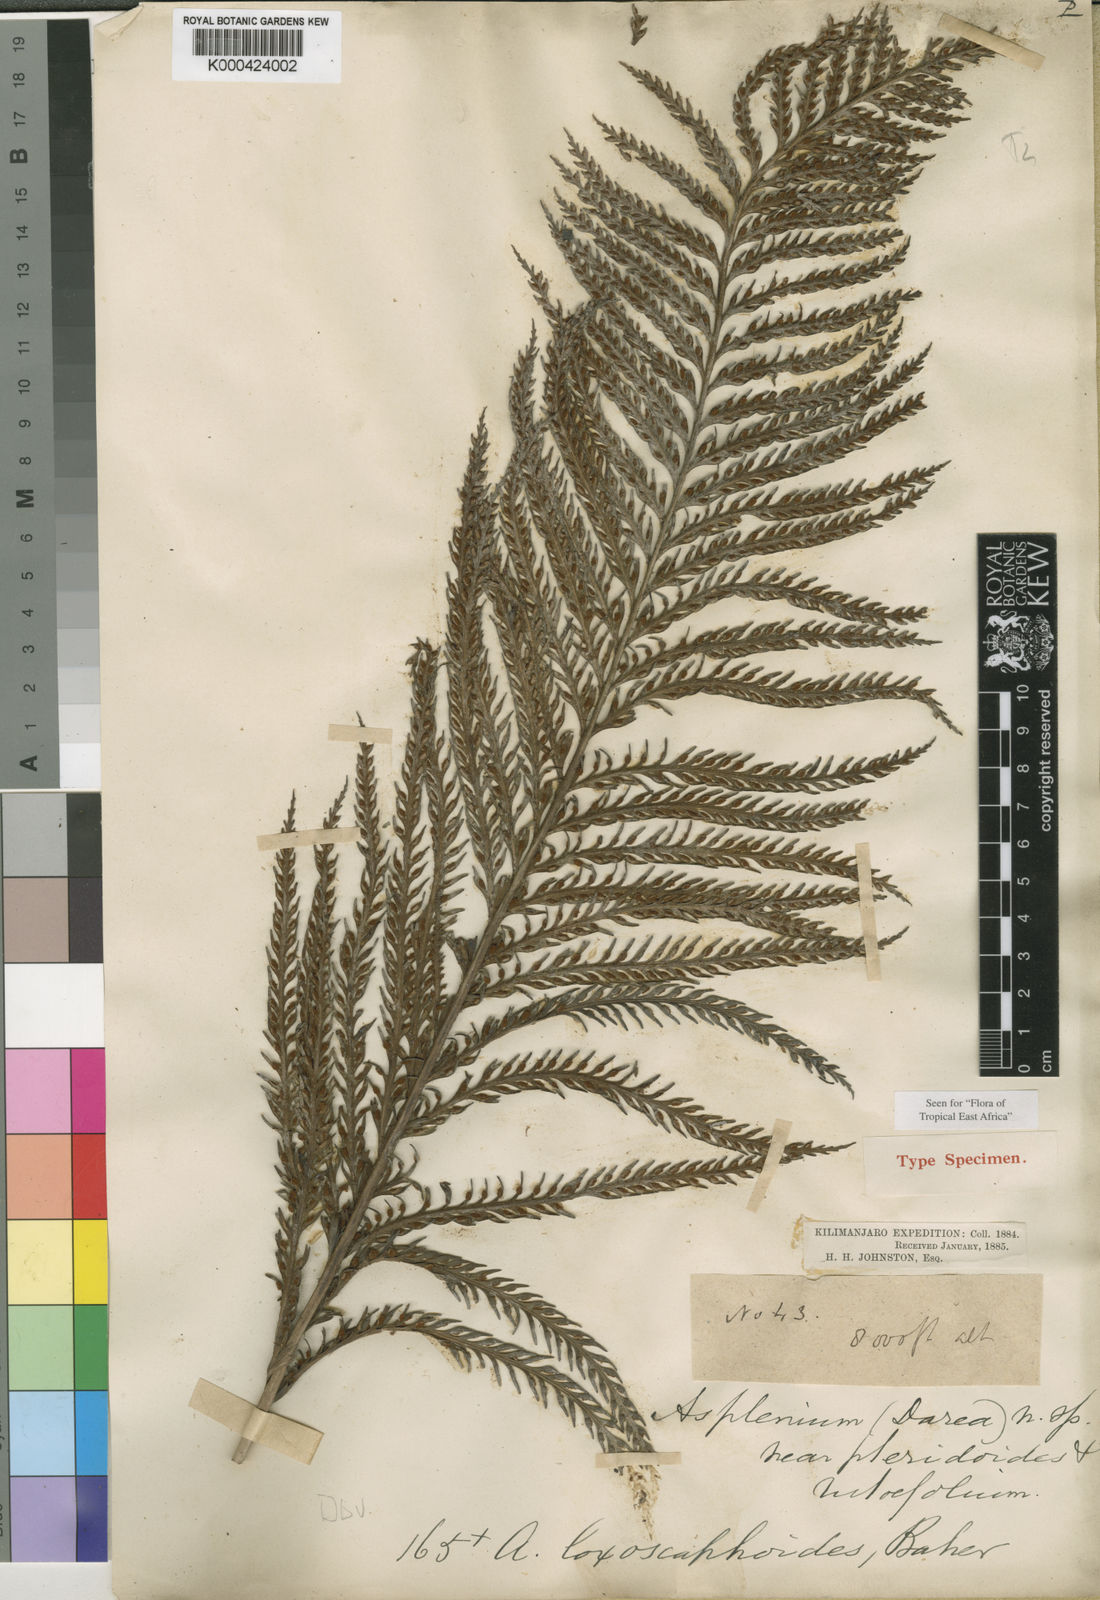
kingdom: Plantae
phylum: Tracheophyta
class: Polypodiopsida
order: Polypodiales
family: Aspleniaceae
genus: Asplenium
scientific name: Asplenium loxoscaphoides
